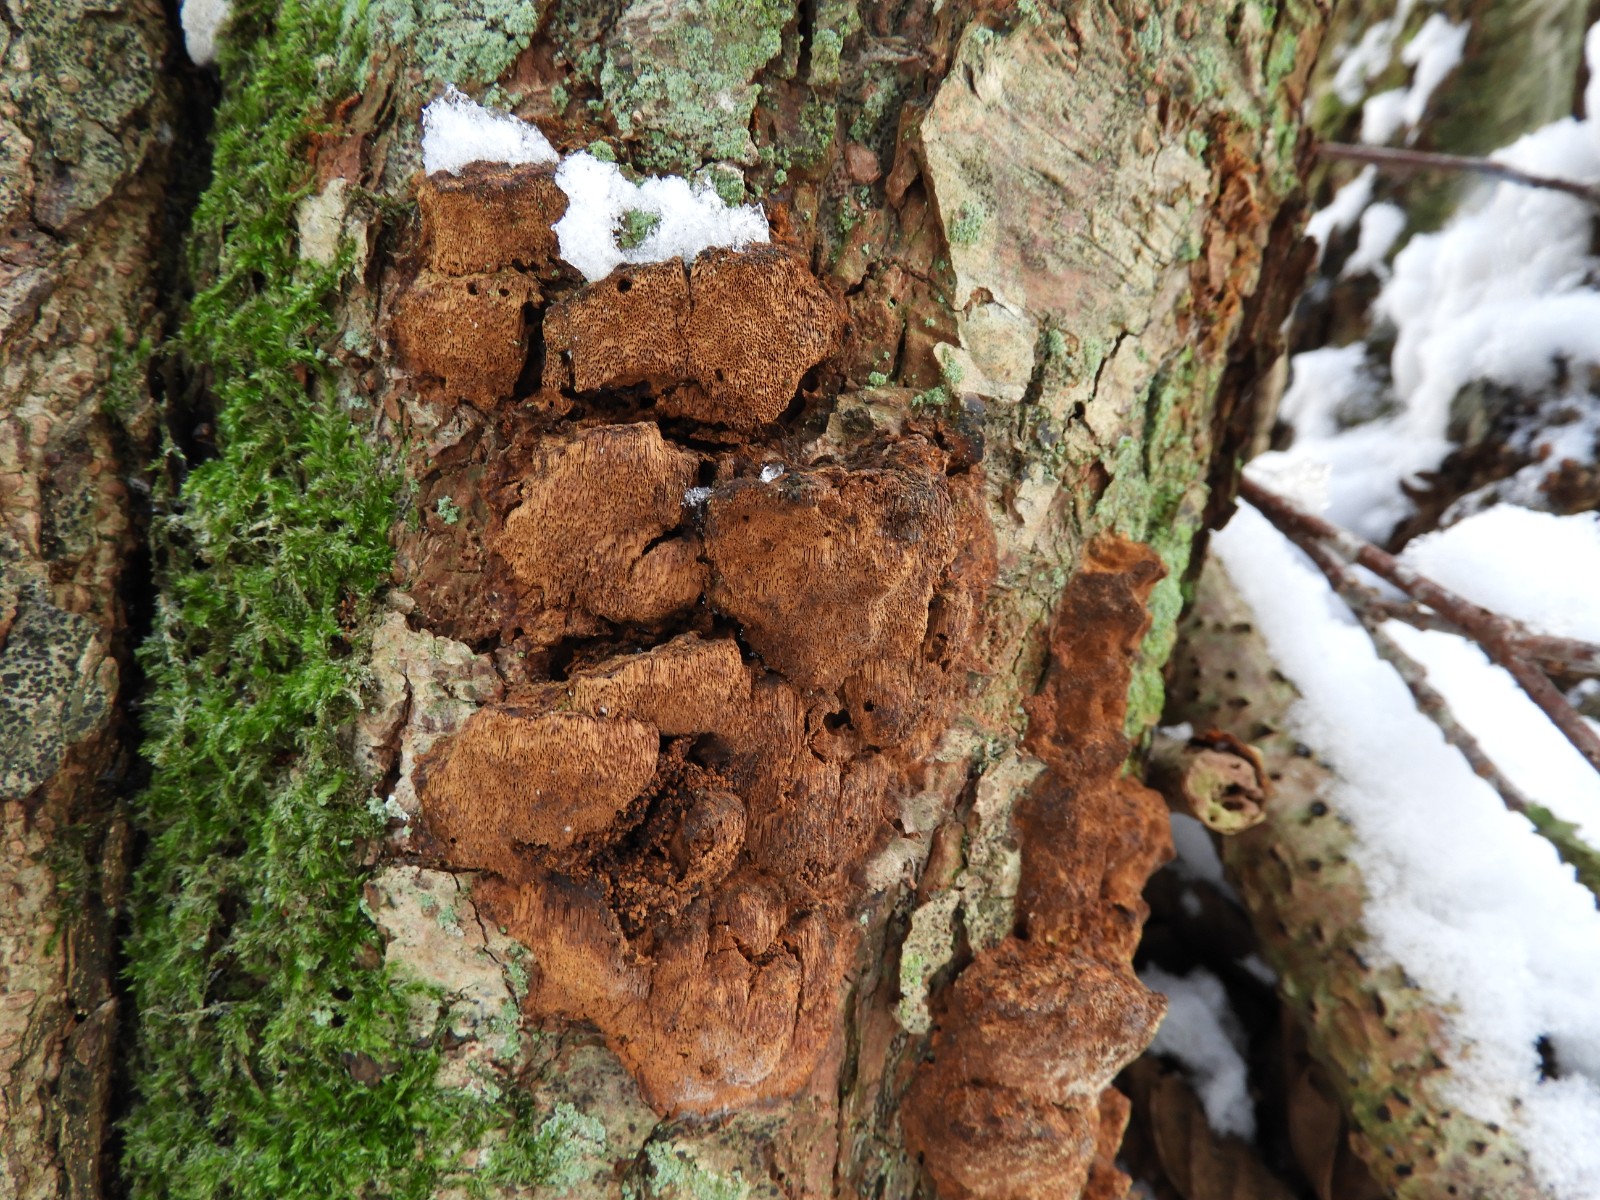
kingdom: Fungi
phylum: Basidiomycota
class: Agaricomycetes
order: Hymenochaetales
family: Hymenochaetaceae
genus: Xanthoporia
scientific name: Xanthoporia radiata
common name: elle-spejlporesvamp
